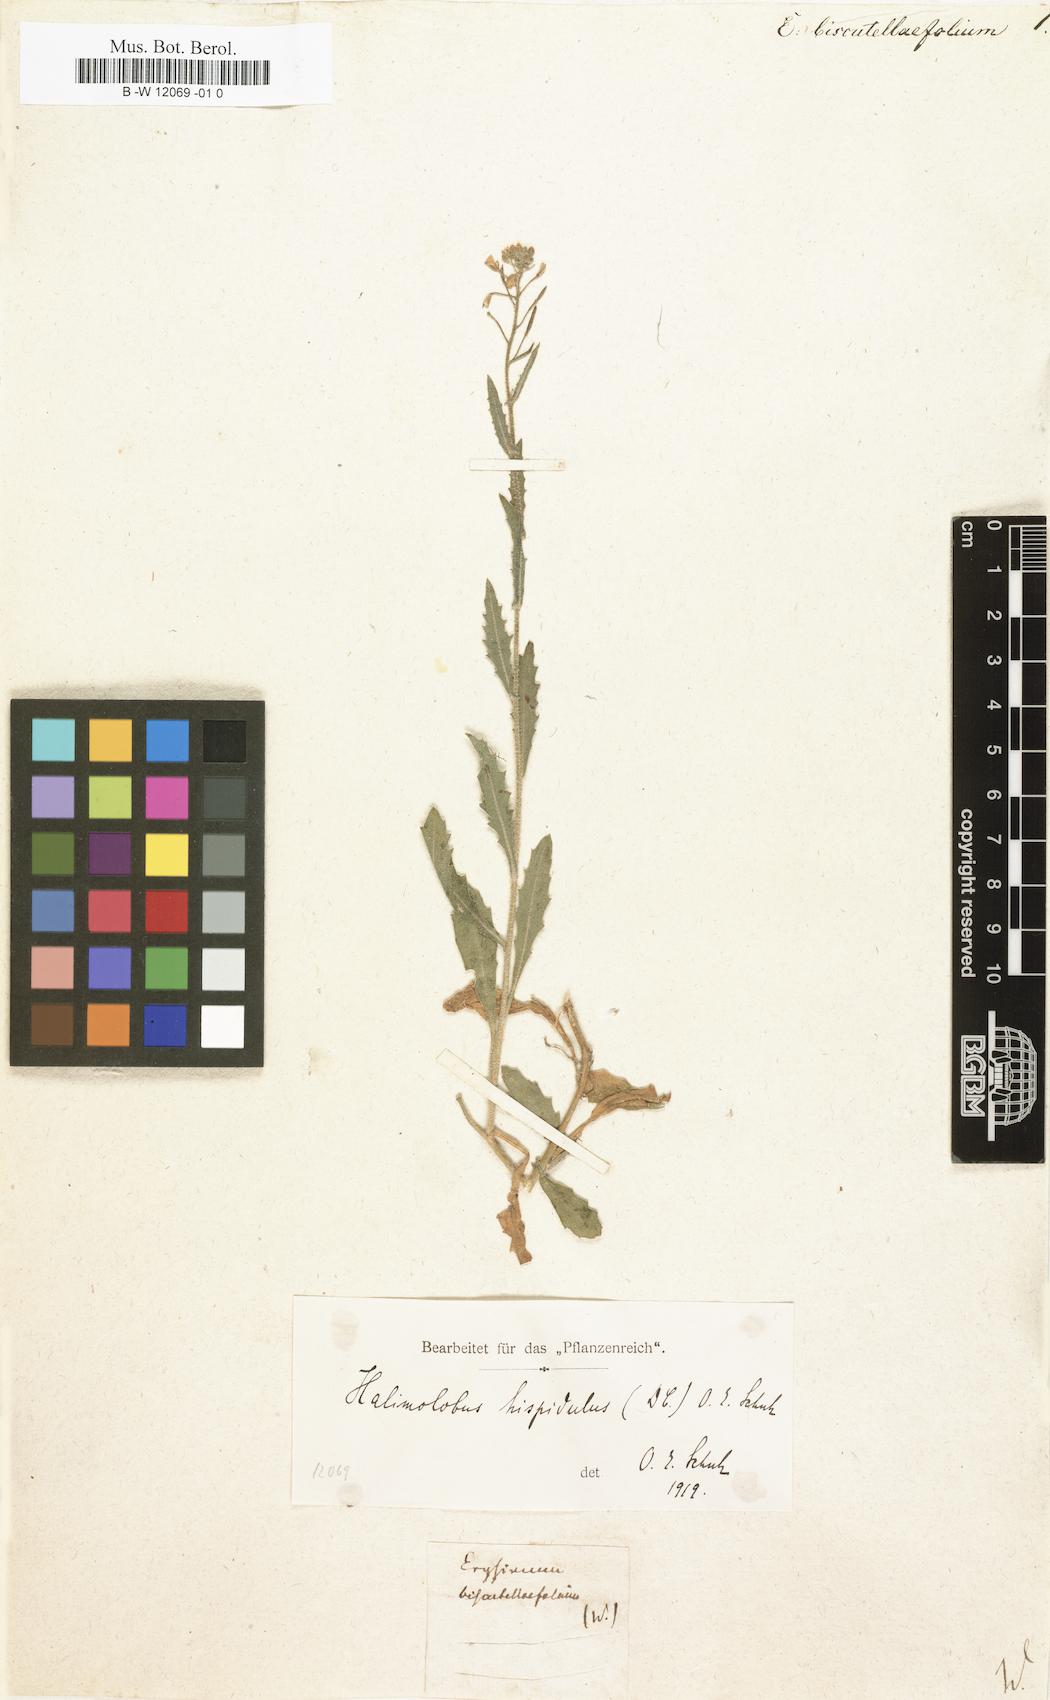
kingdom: Plantae
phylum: Tracheophyta
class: Magnoliopsida
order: Brassicales
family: Brassicaceae
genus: Erysimum
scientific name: Erysimum
